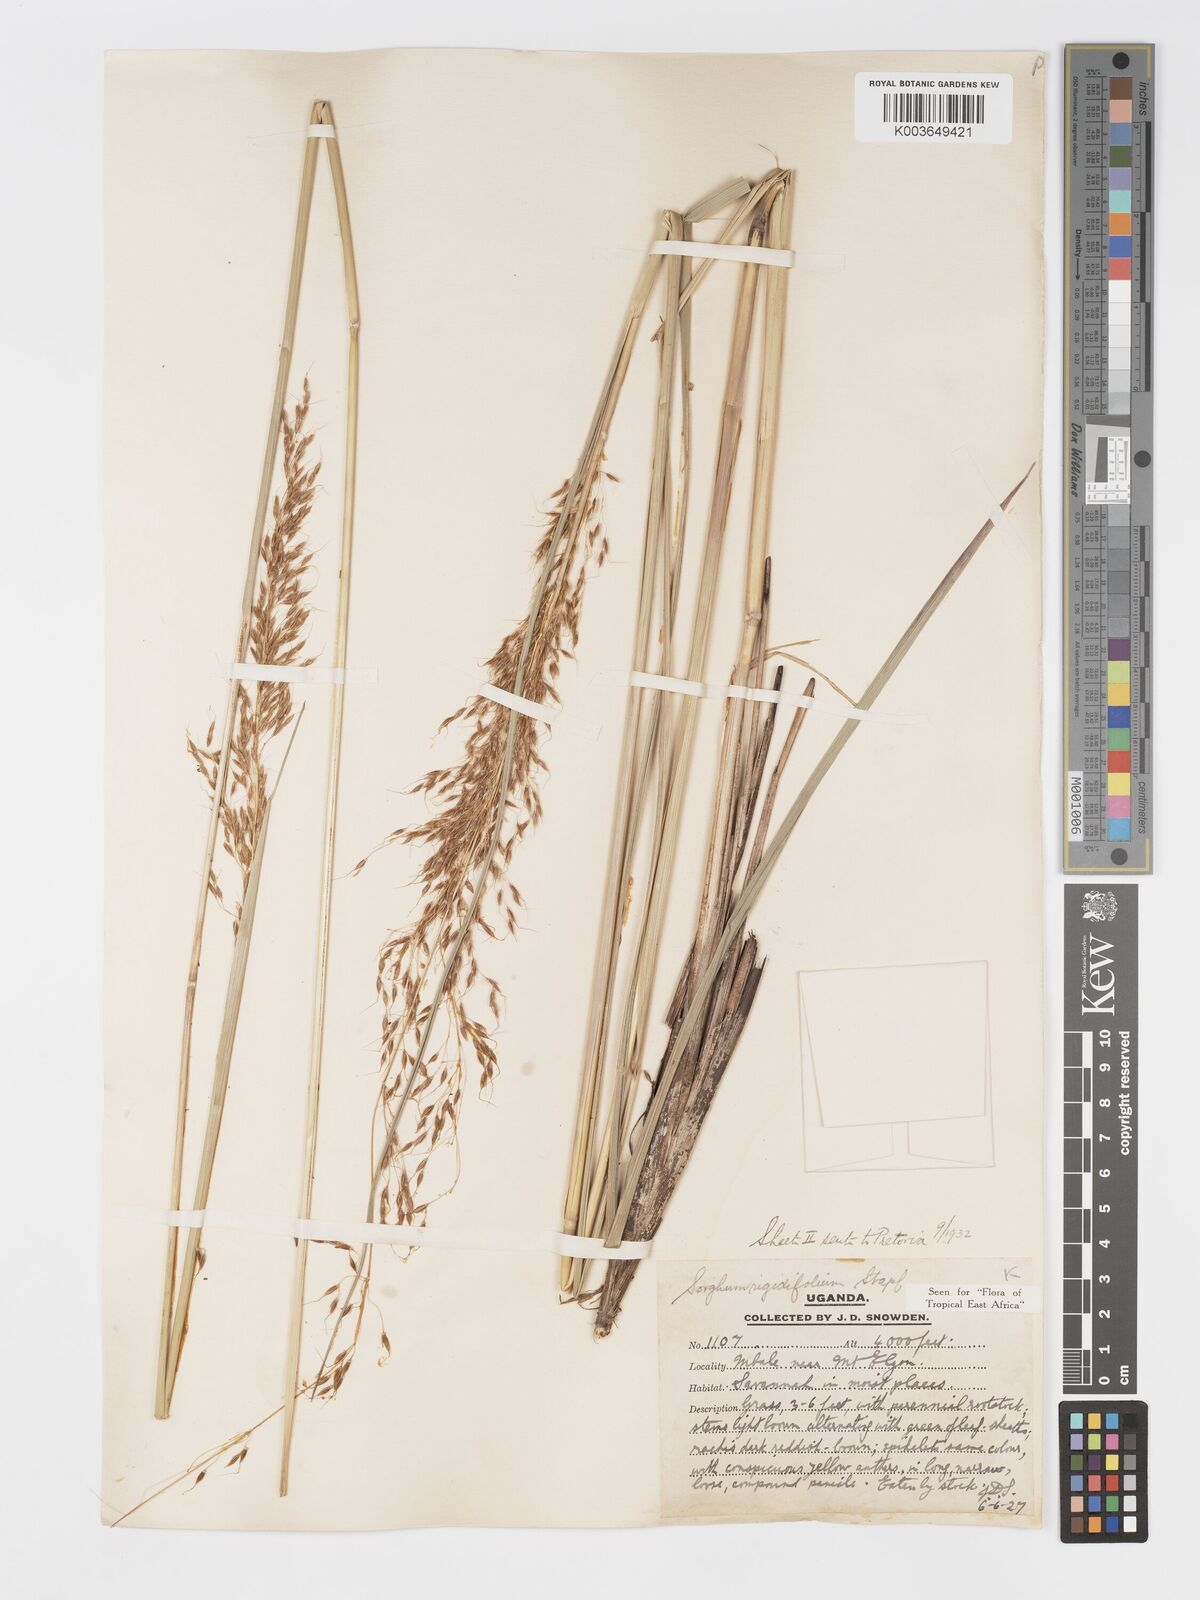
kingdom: Plantae
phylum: Tracheophyta
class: Liliopsida
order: Poales
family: Poaceae
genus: Sorghastrum
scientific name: Sorghastrum stipoides
